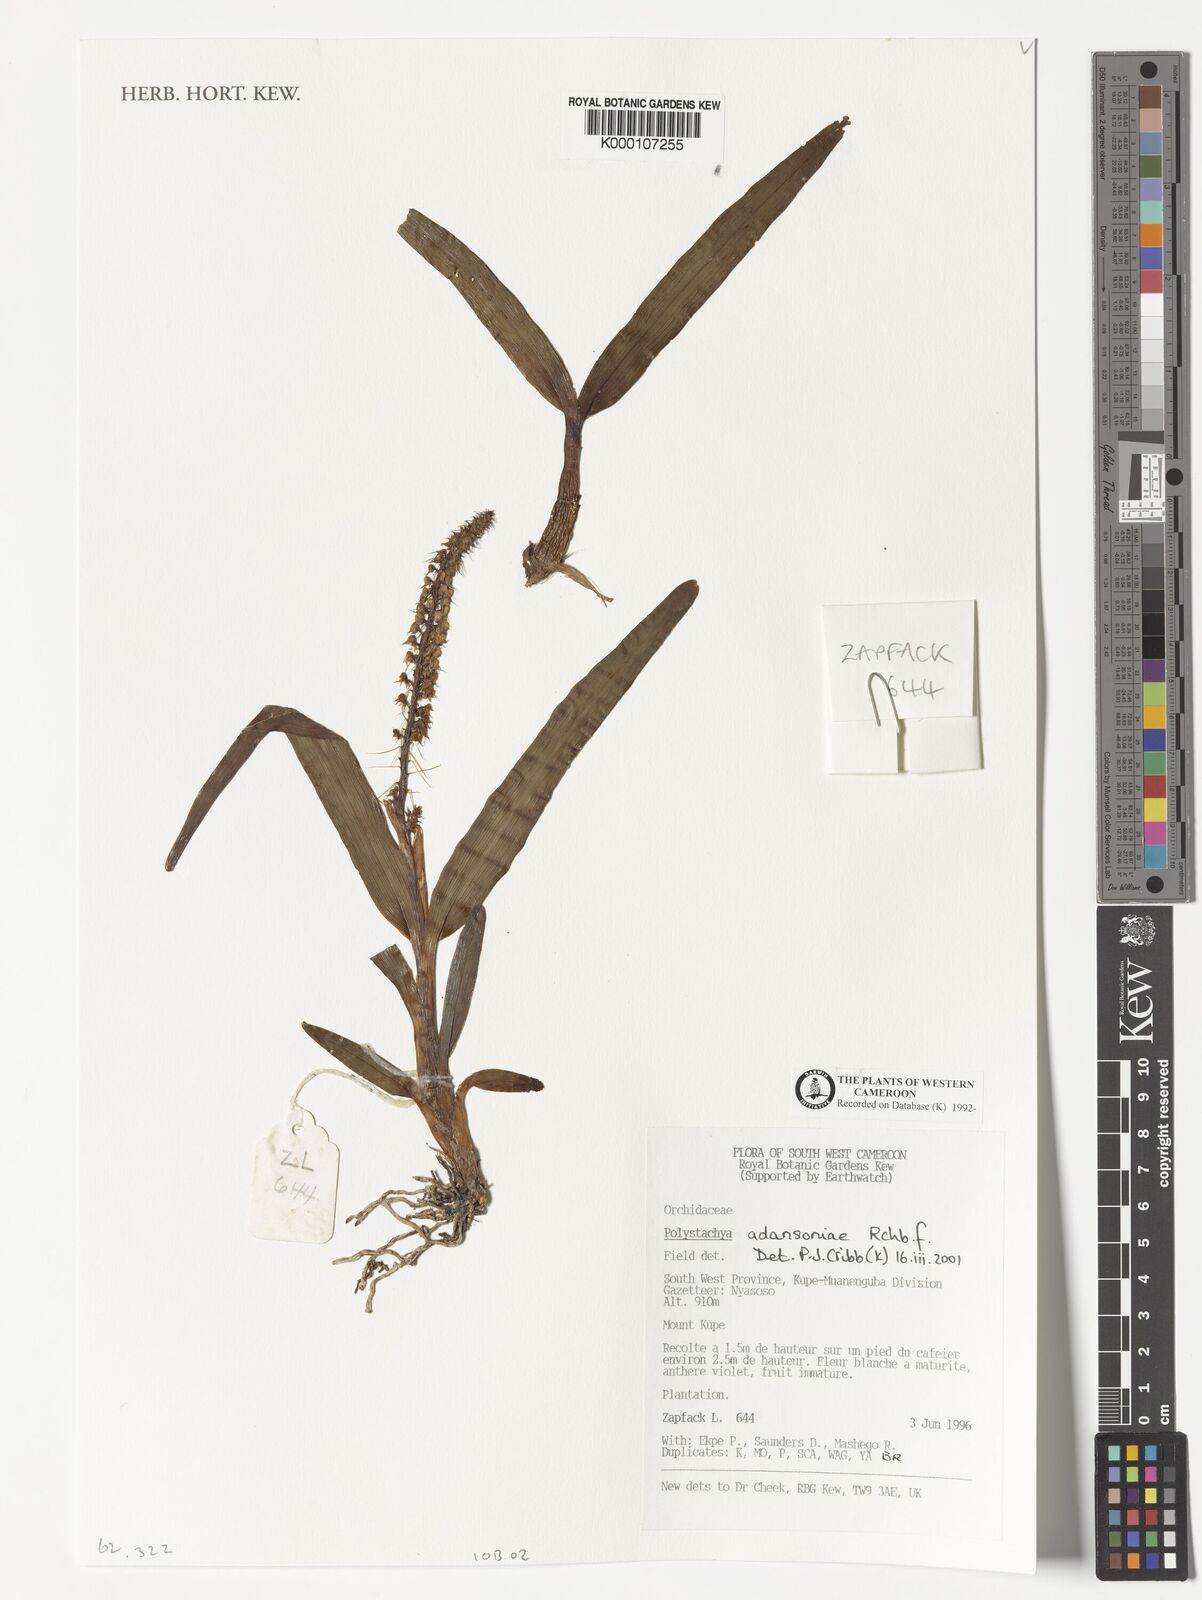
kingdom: Plantae
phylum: Tracheophyta
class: Liliopsida
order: Asparagales
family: Orchidaceae
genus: Polystachya
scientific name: Polystachya adansoniae
